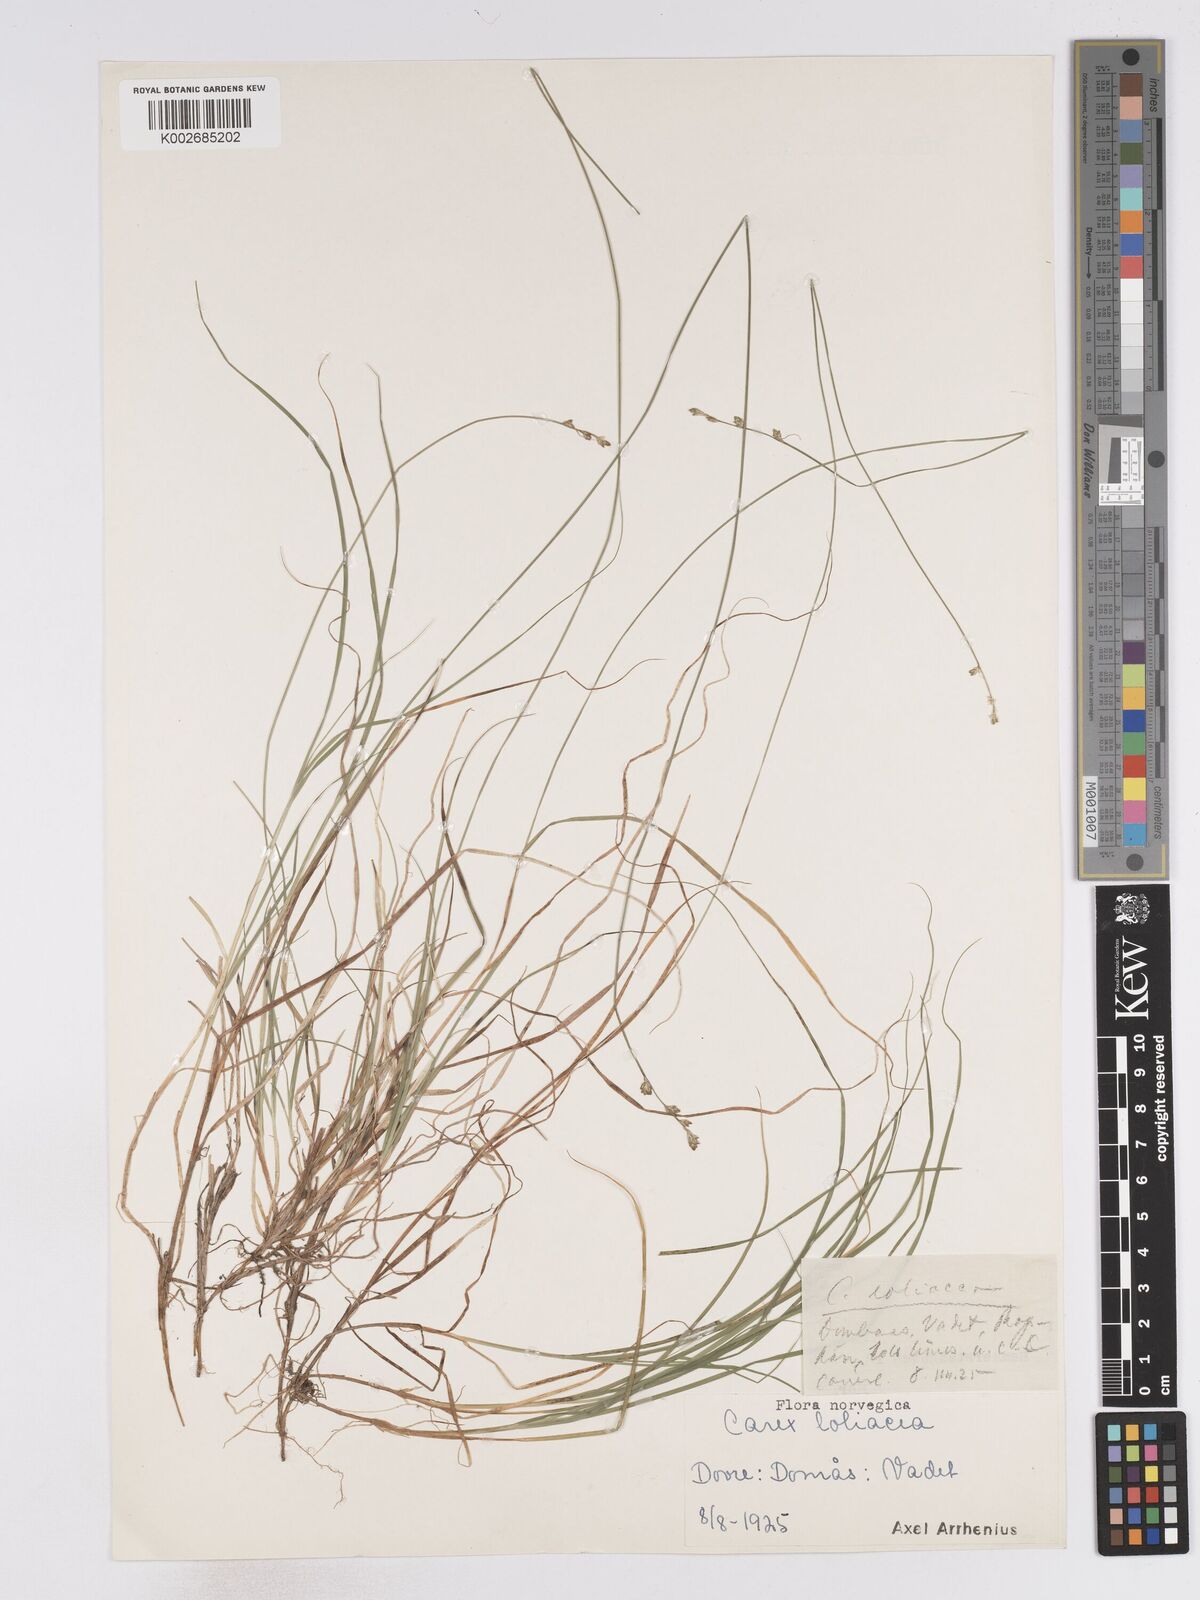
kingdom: Plantae
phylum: Tracheophyta
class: Liliopsida
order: Poales
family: Cyperaceae
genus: Carex
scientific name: Carex loliacea
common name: Ryegrass sedge
